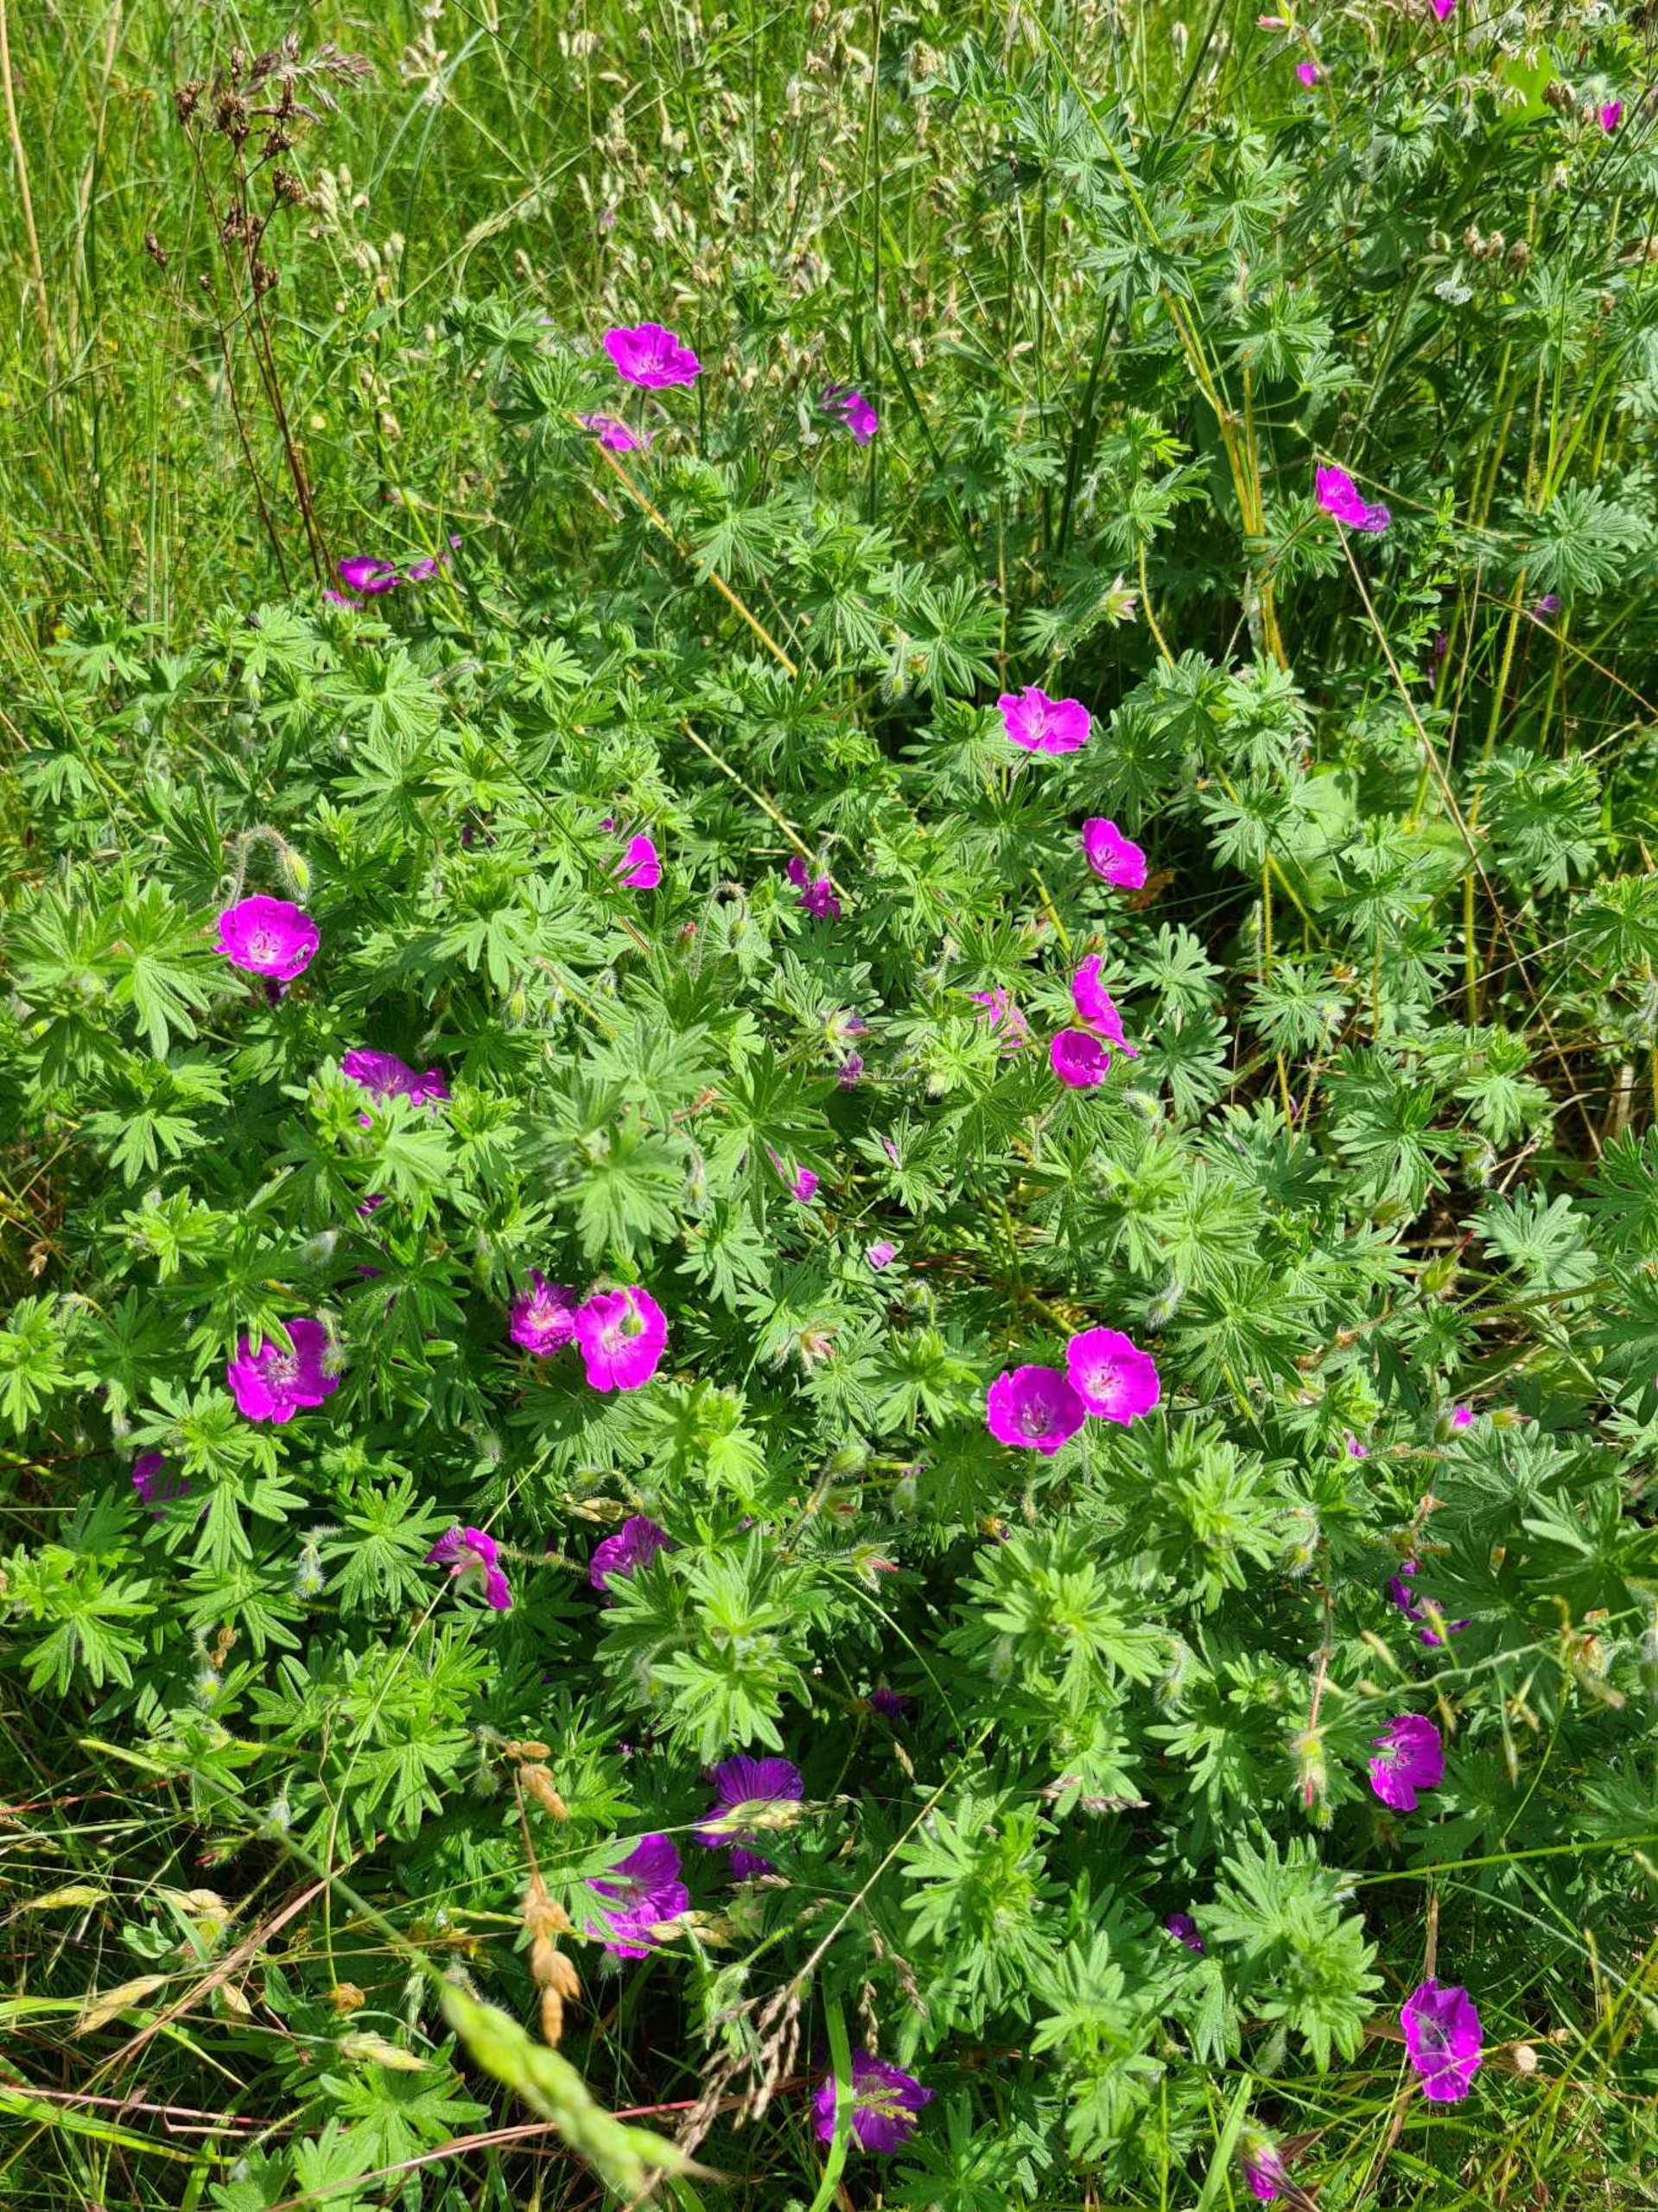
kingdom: Plantae
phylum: Tracheophyta
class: Magnoliopsida
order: Geraniales
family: Geraniaceae
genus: Geranium
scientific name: Geranium sanguineum
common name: Blodrød storkenæb
